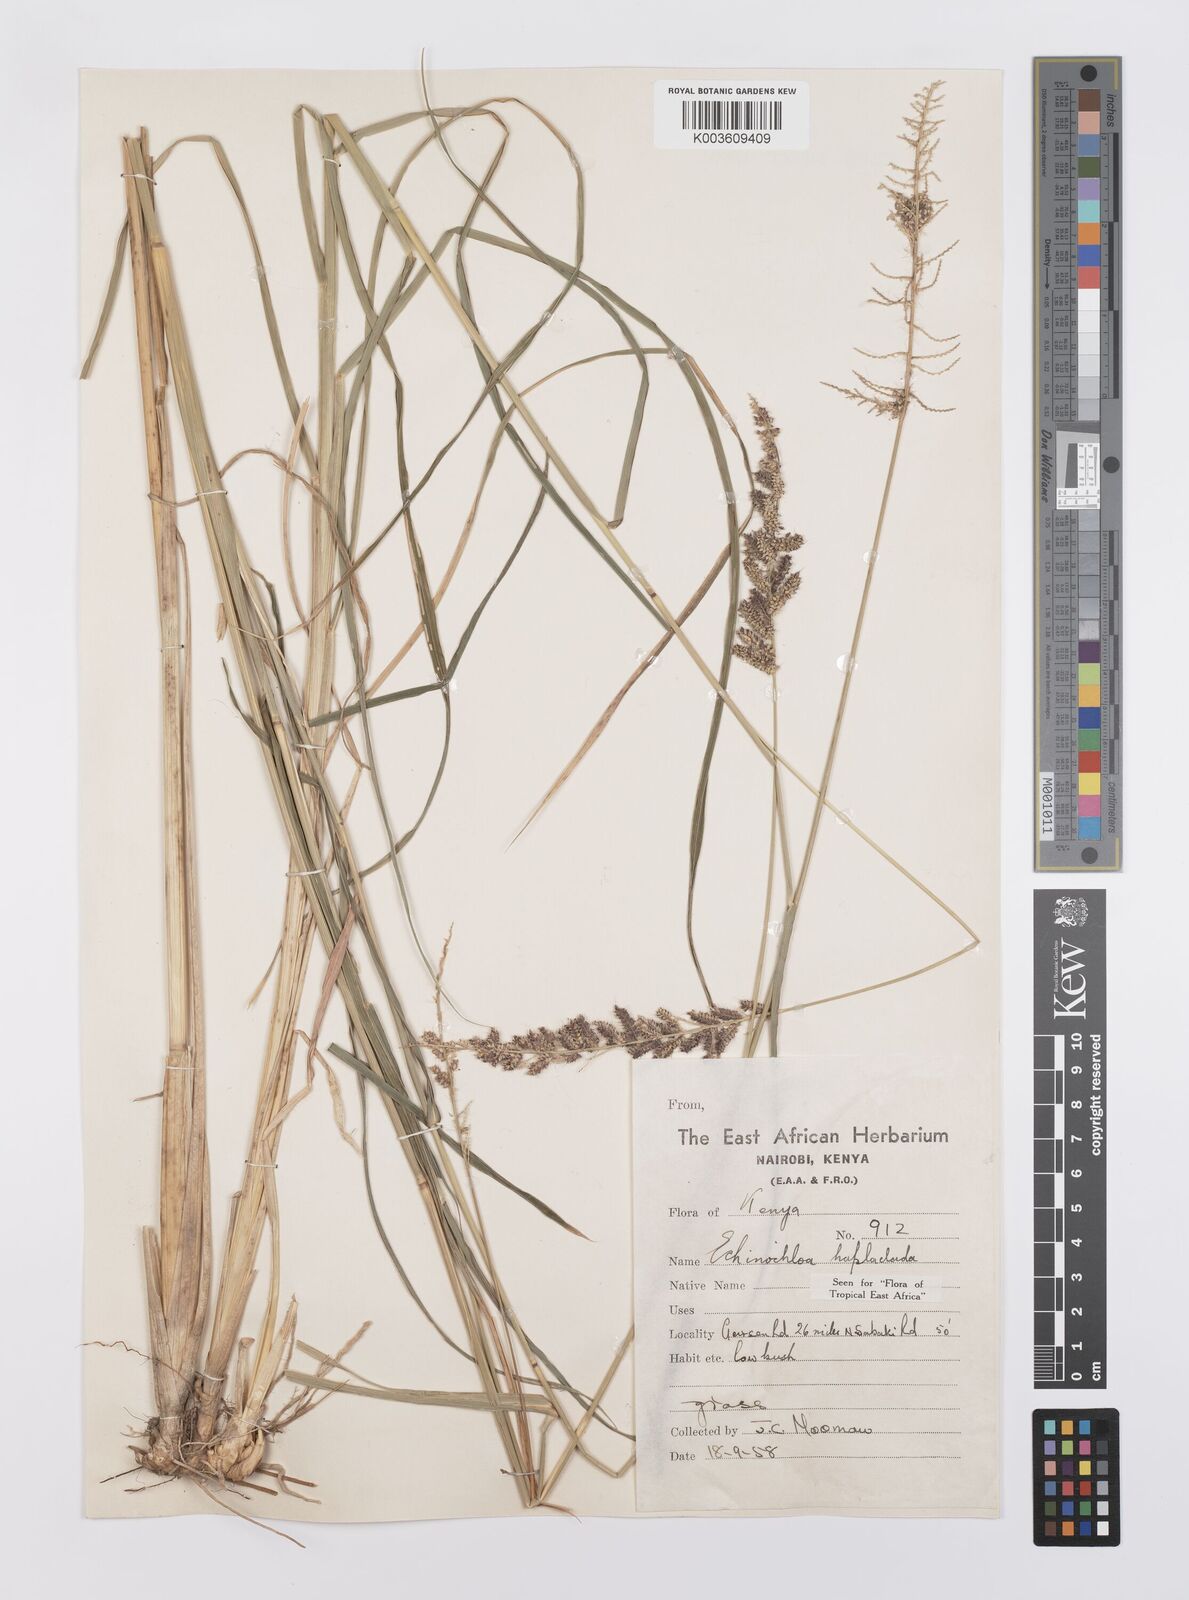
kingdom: Plantae
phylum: Tracheophyta
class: Liliopsida
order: Poales
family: Poaceae
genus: Echinochloa
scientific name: Echinochloa haploclada
